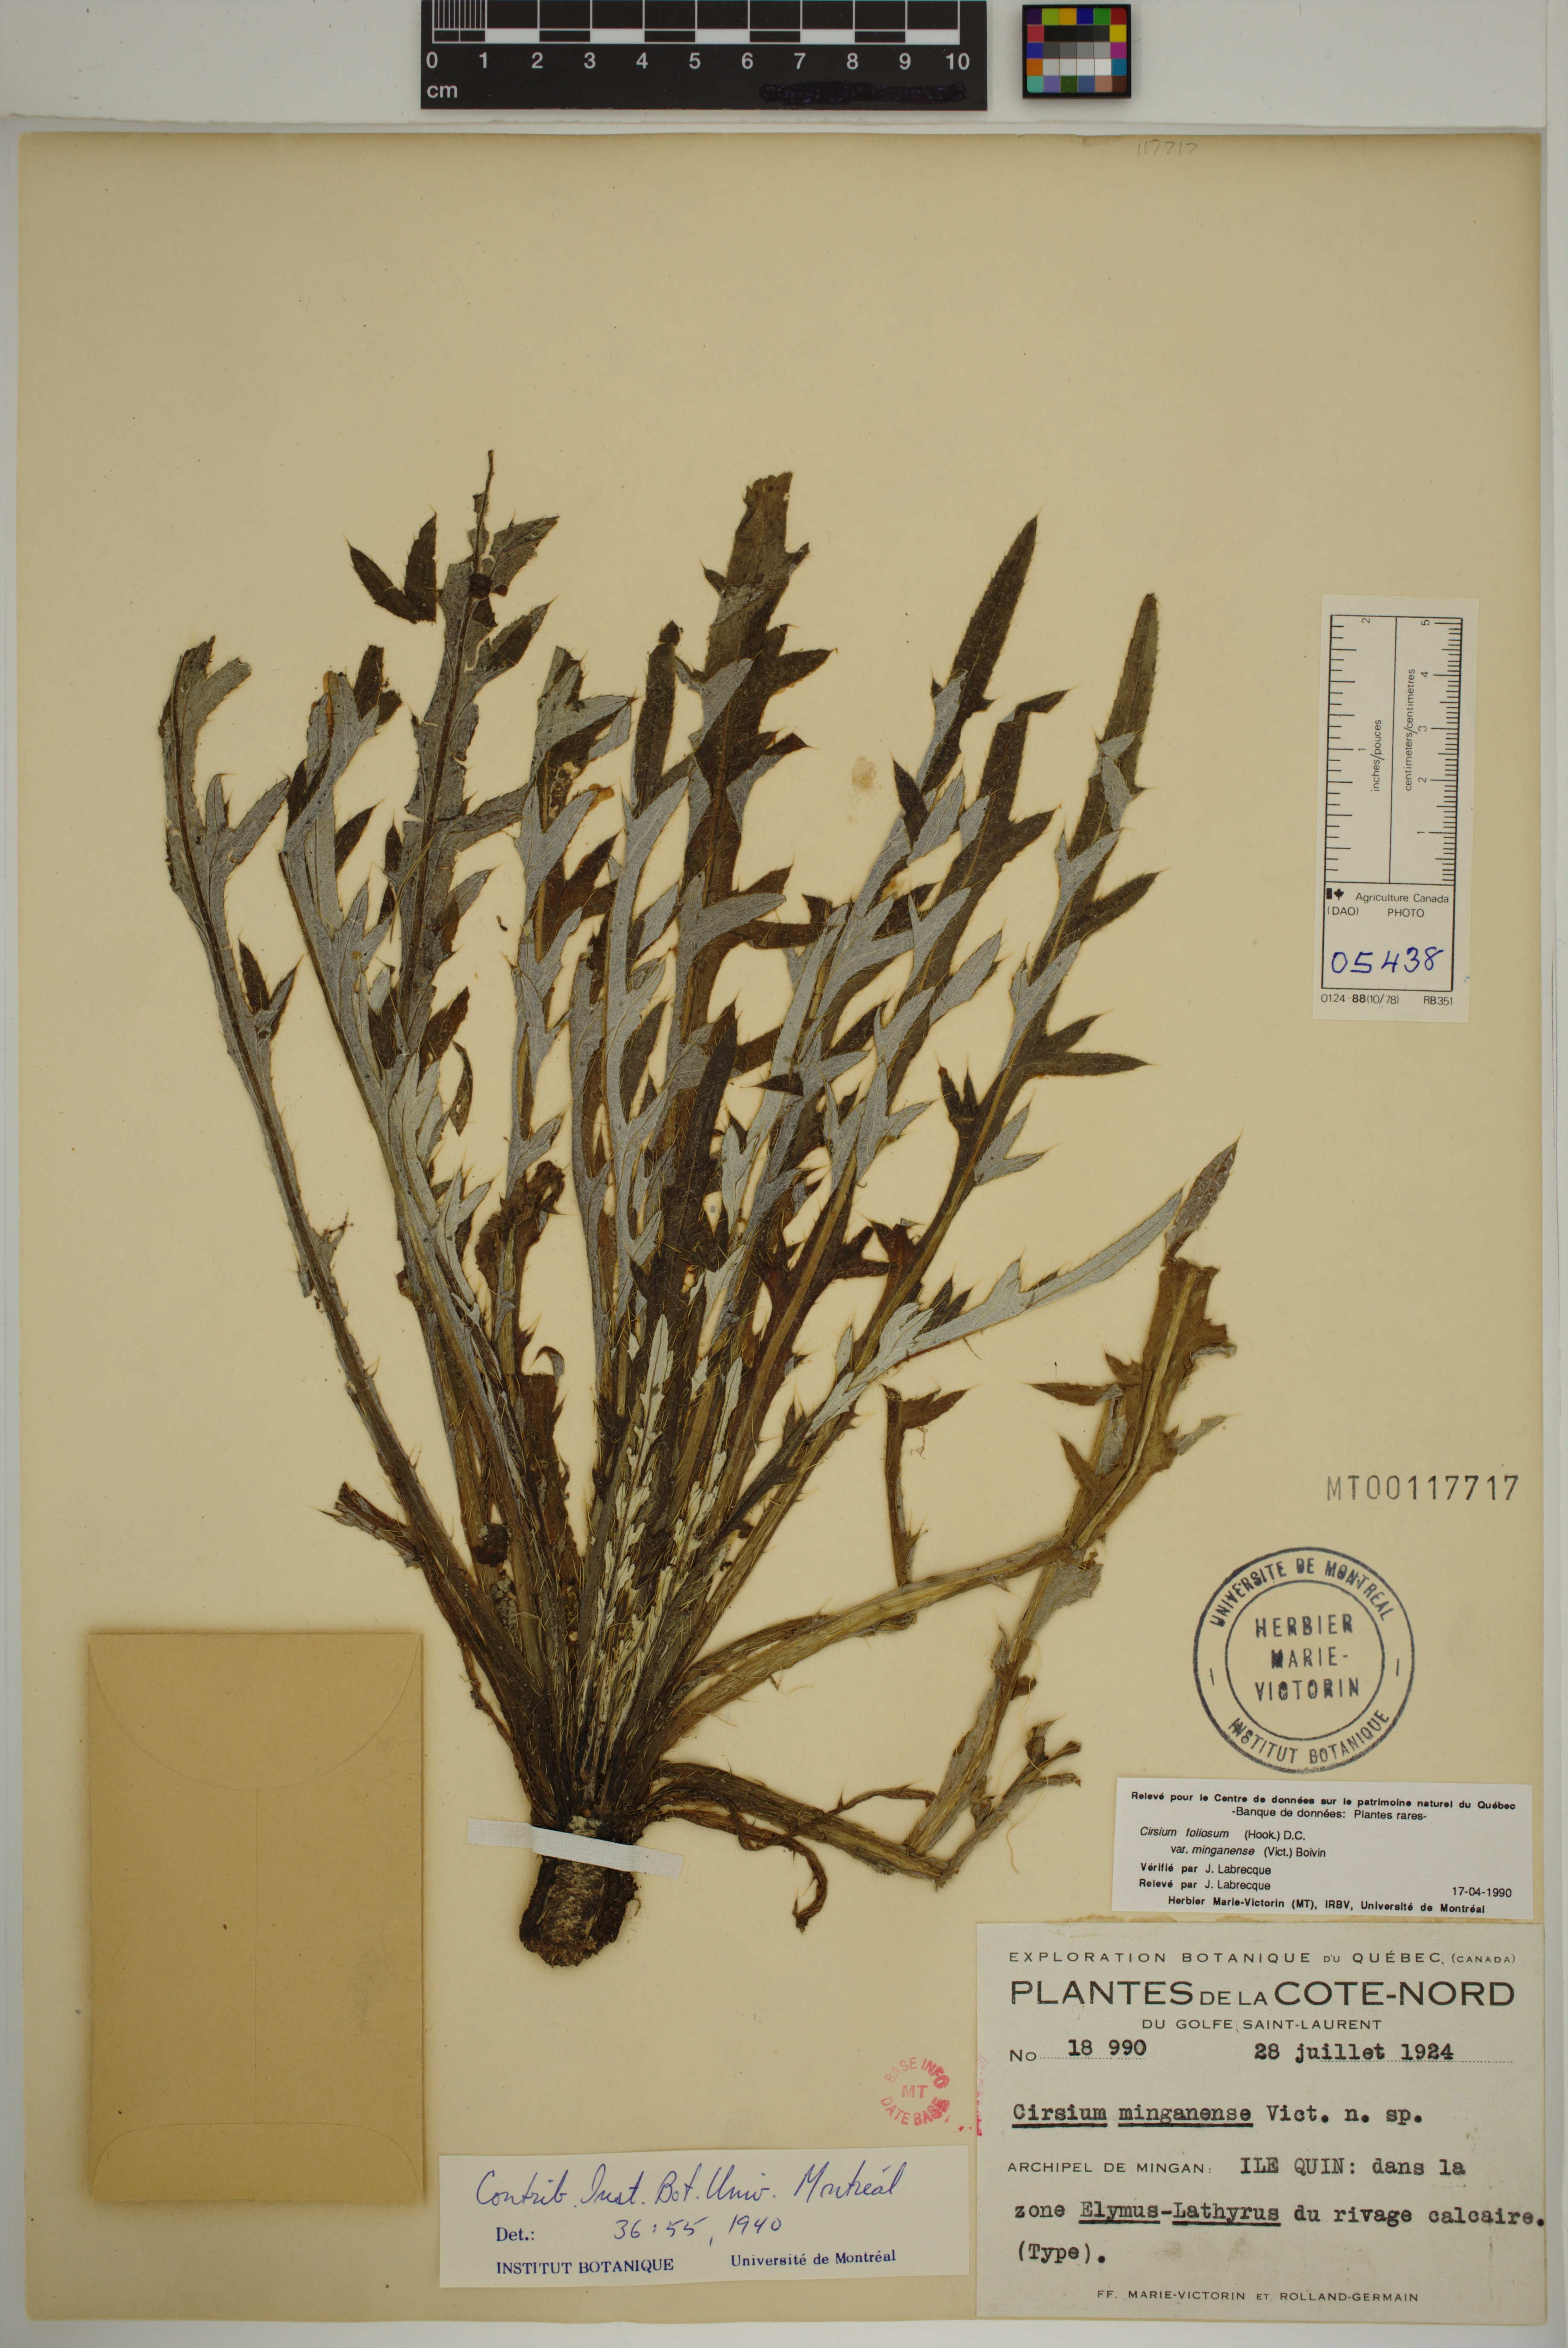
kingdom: Plantae
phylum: Tracheophyta
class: Magnoliopsida
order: Asterales
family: Asteraceae
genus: Cirsium
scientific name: Cirsium scariosum
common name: Meadow thistle
